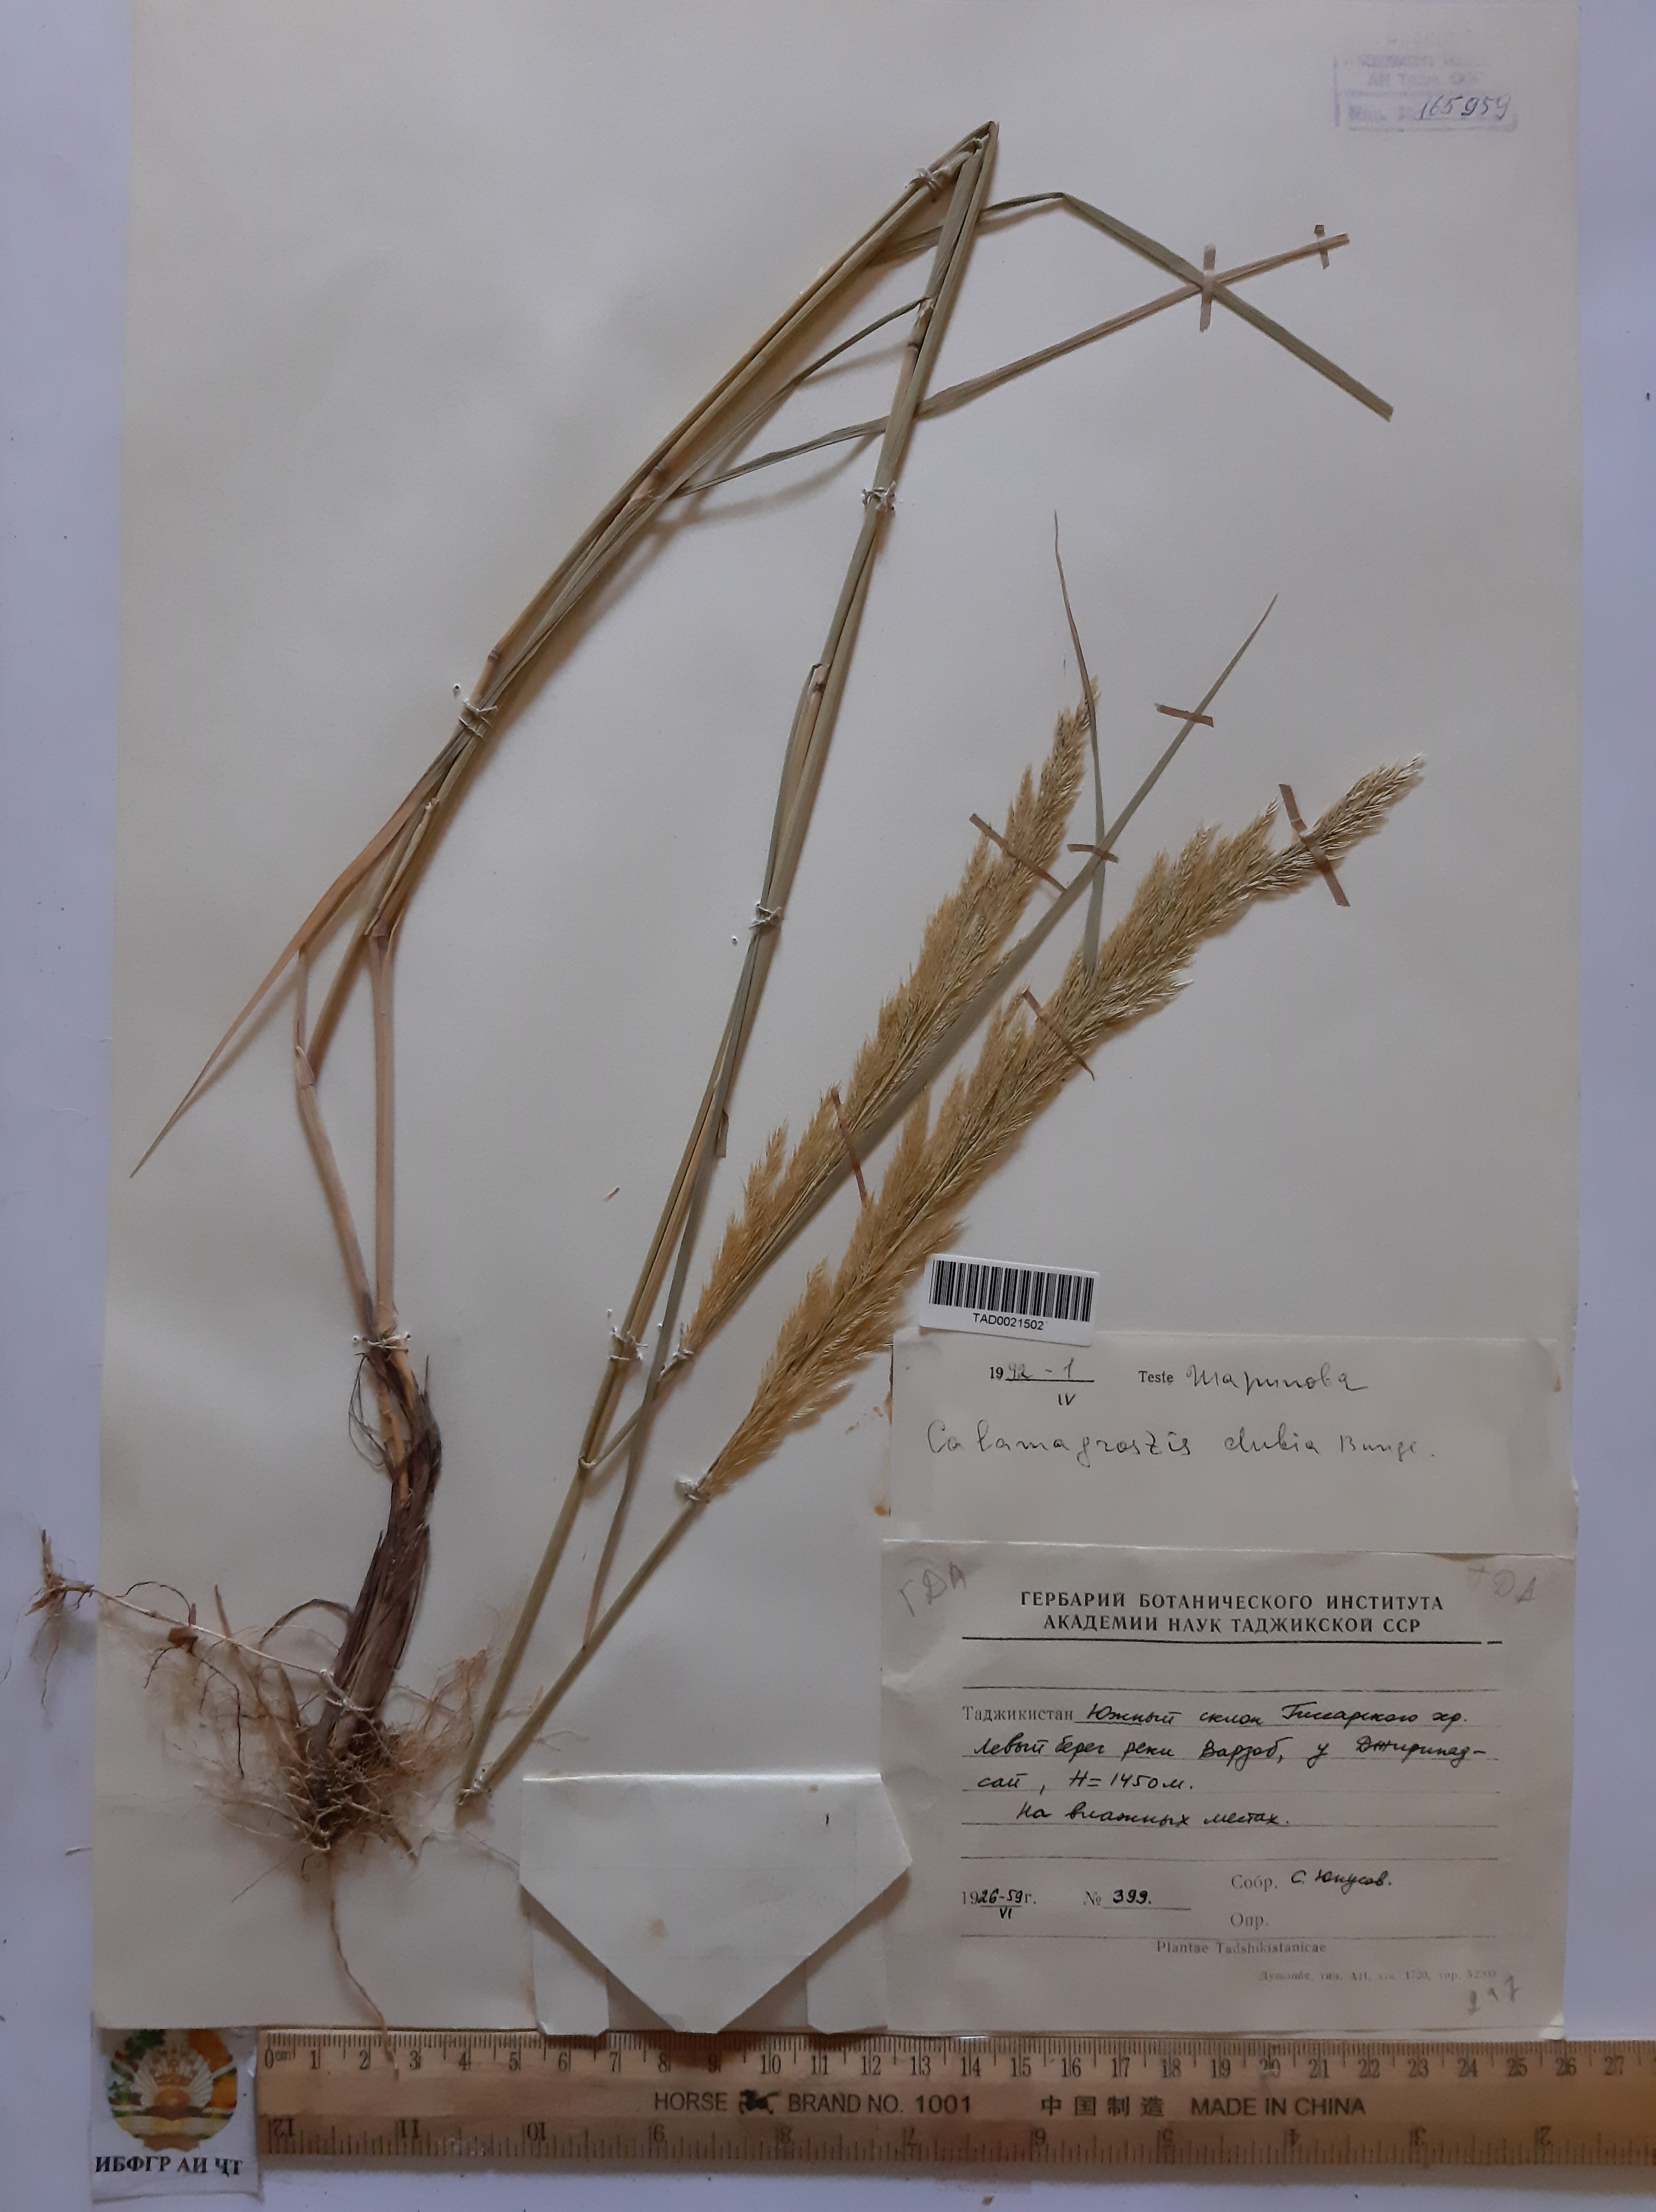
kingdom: Plantae
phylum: Tracheophyta
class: Liliopsida
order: Poales
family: Poaceae
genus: Calamagrostis
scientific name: Calamagrostis pseudophragmites
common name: Coastal small-reed
